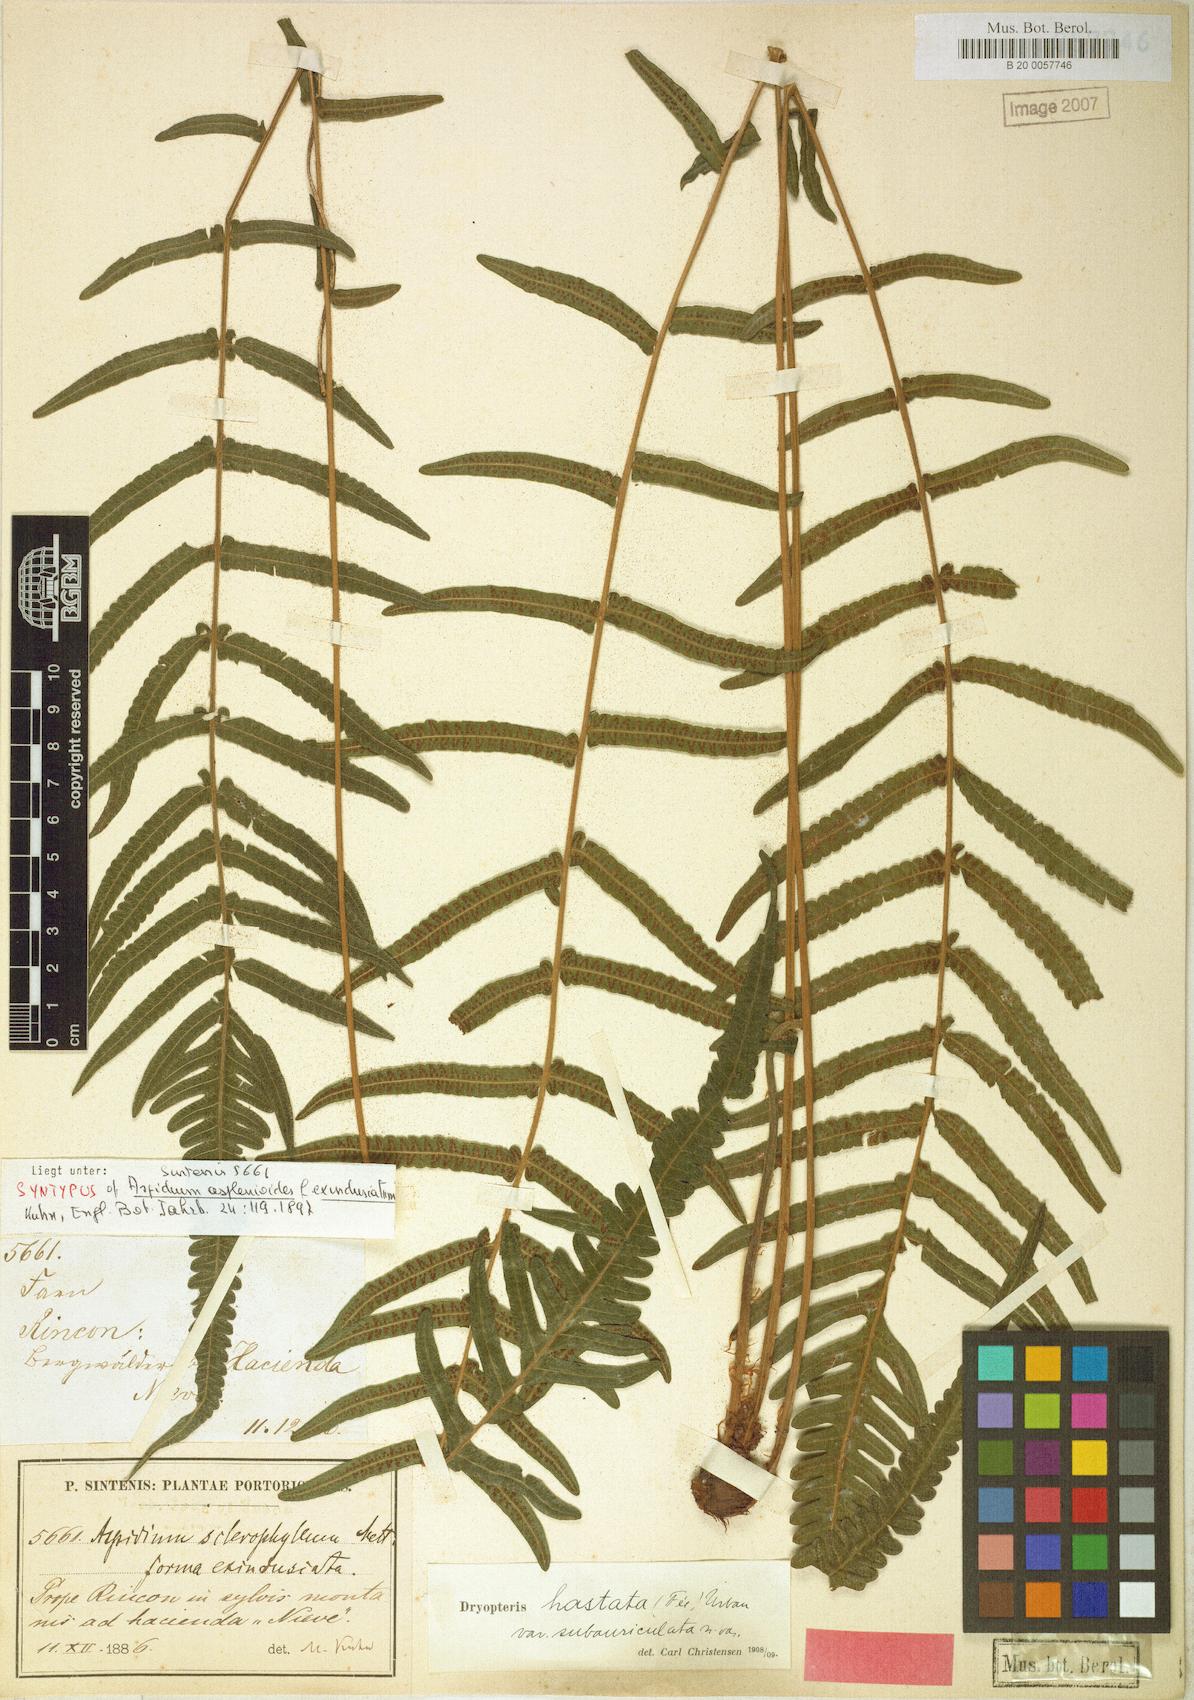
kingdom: Plantae
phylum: Tracheophyta
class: Polypodiopsida
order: Polypodiales
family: Thelypteridaceae
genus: Goniopteris
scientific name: Goniopteris hastata
